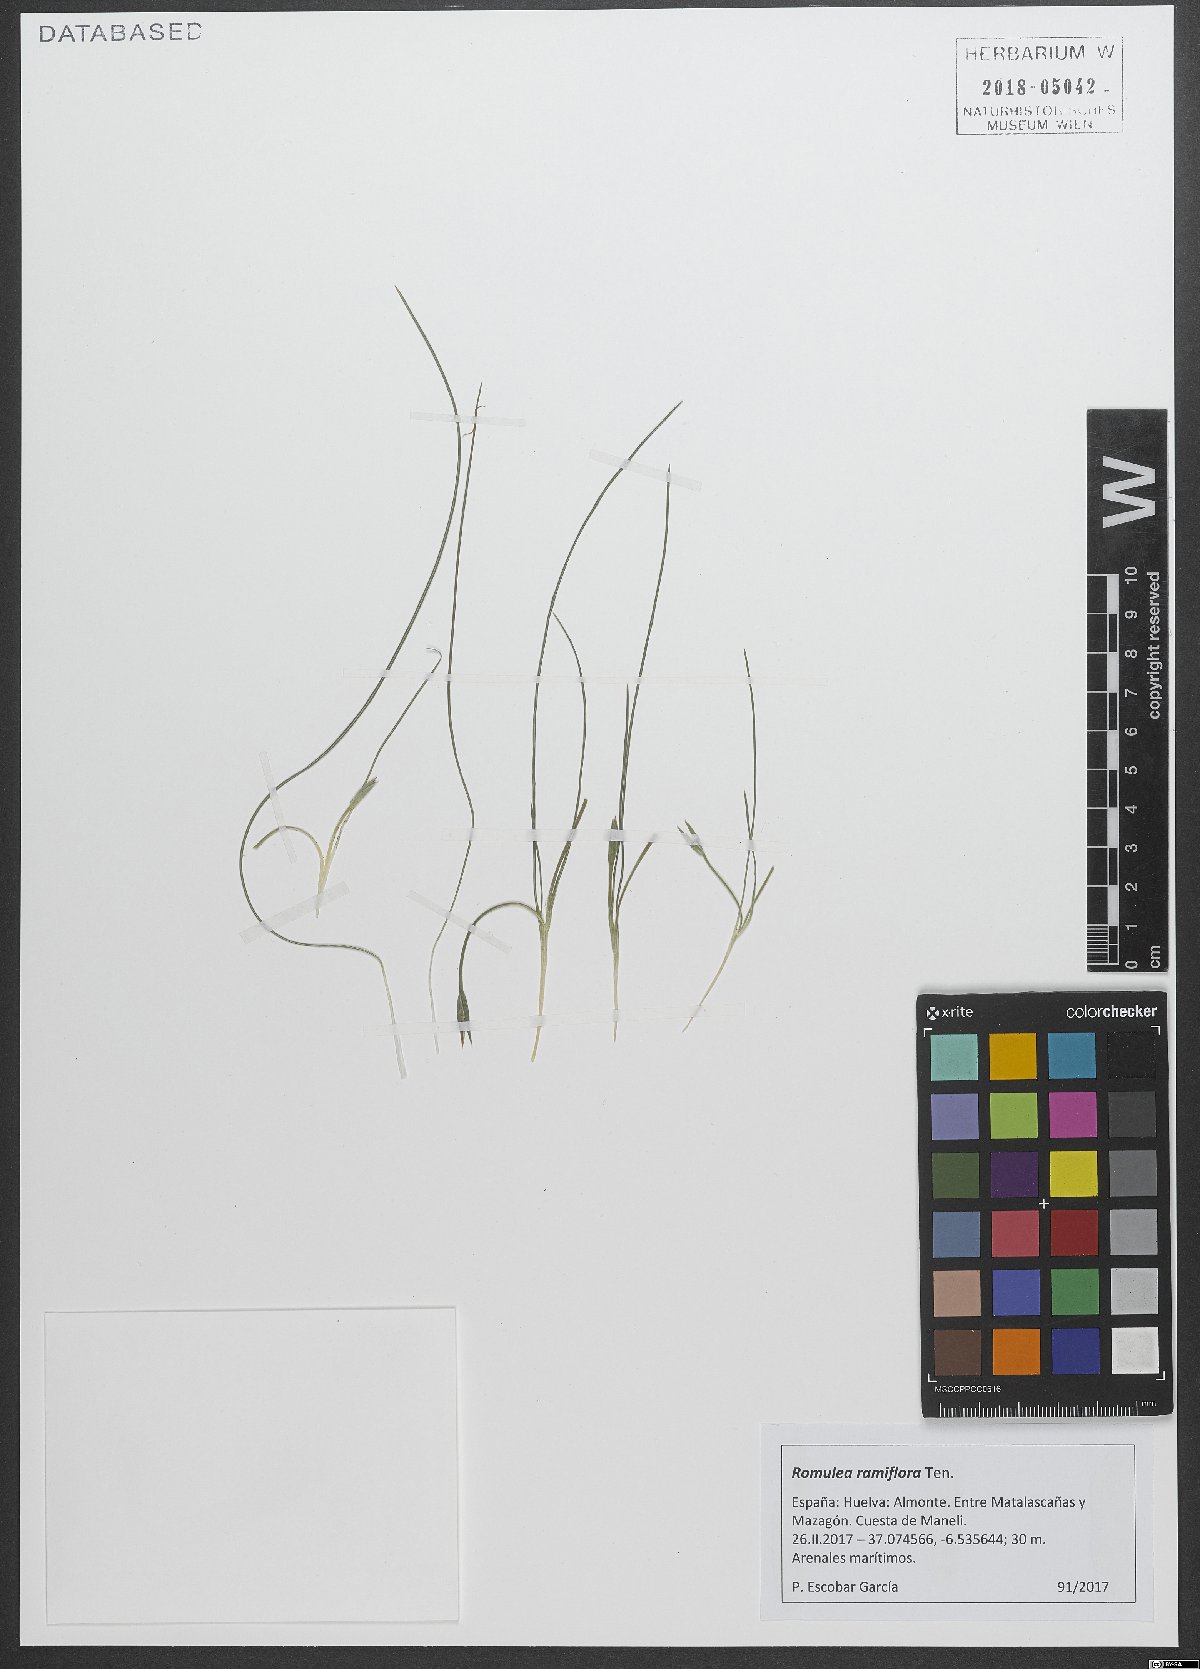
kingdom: Plantae
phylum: Tracheophyta
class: Liliopsida
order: Asparagales
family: Iridaceae
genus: Romulea
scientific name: Romulea ramiflora
